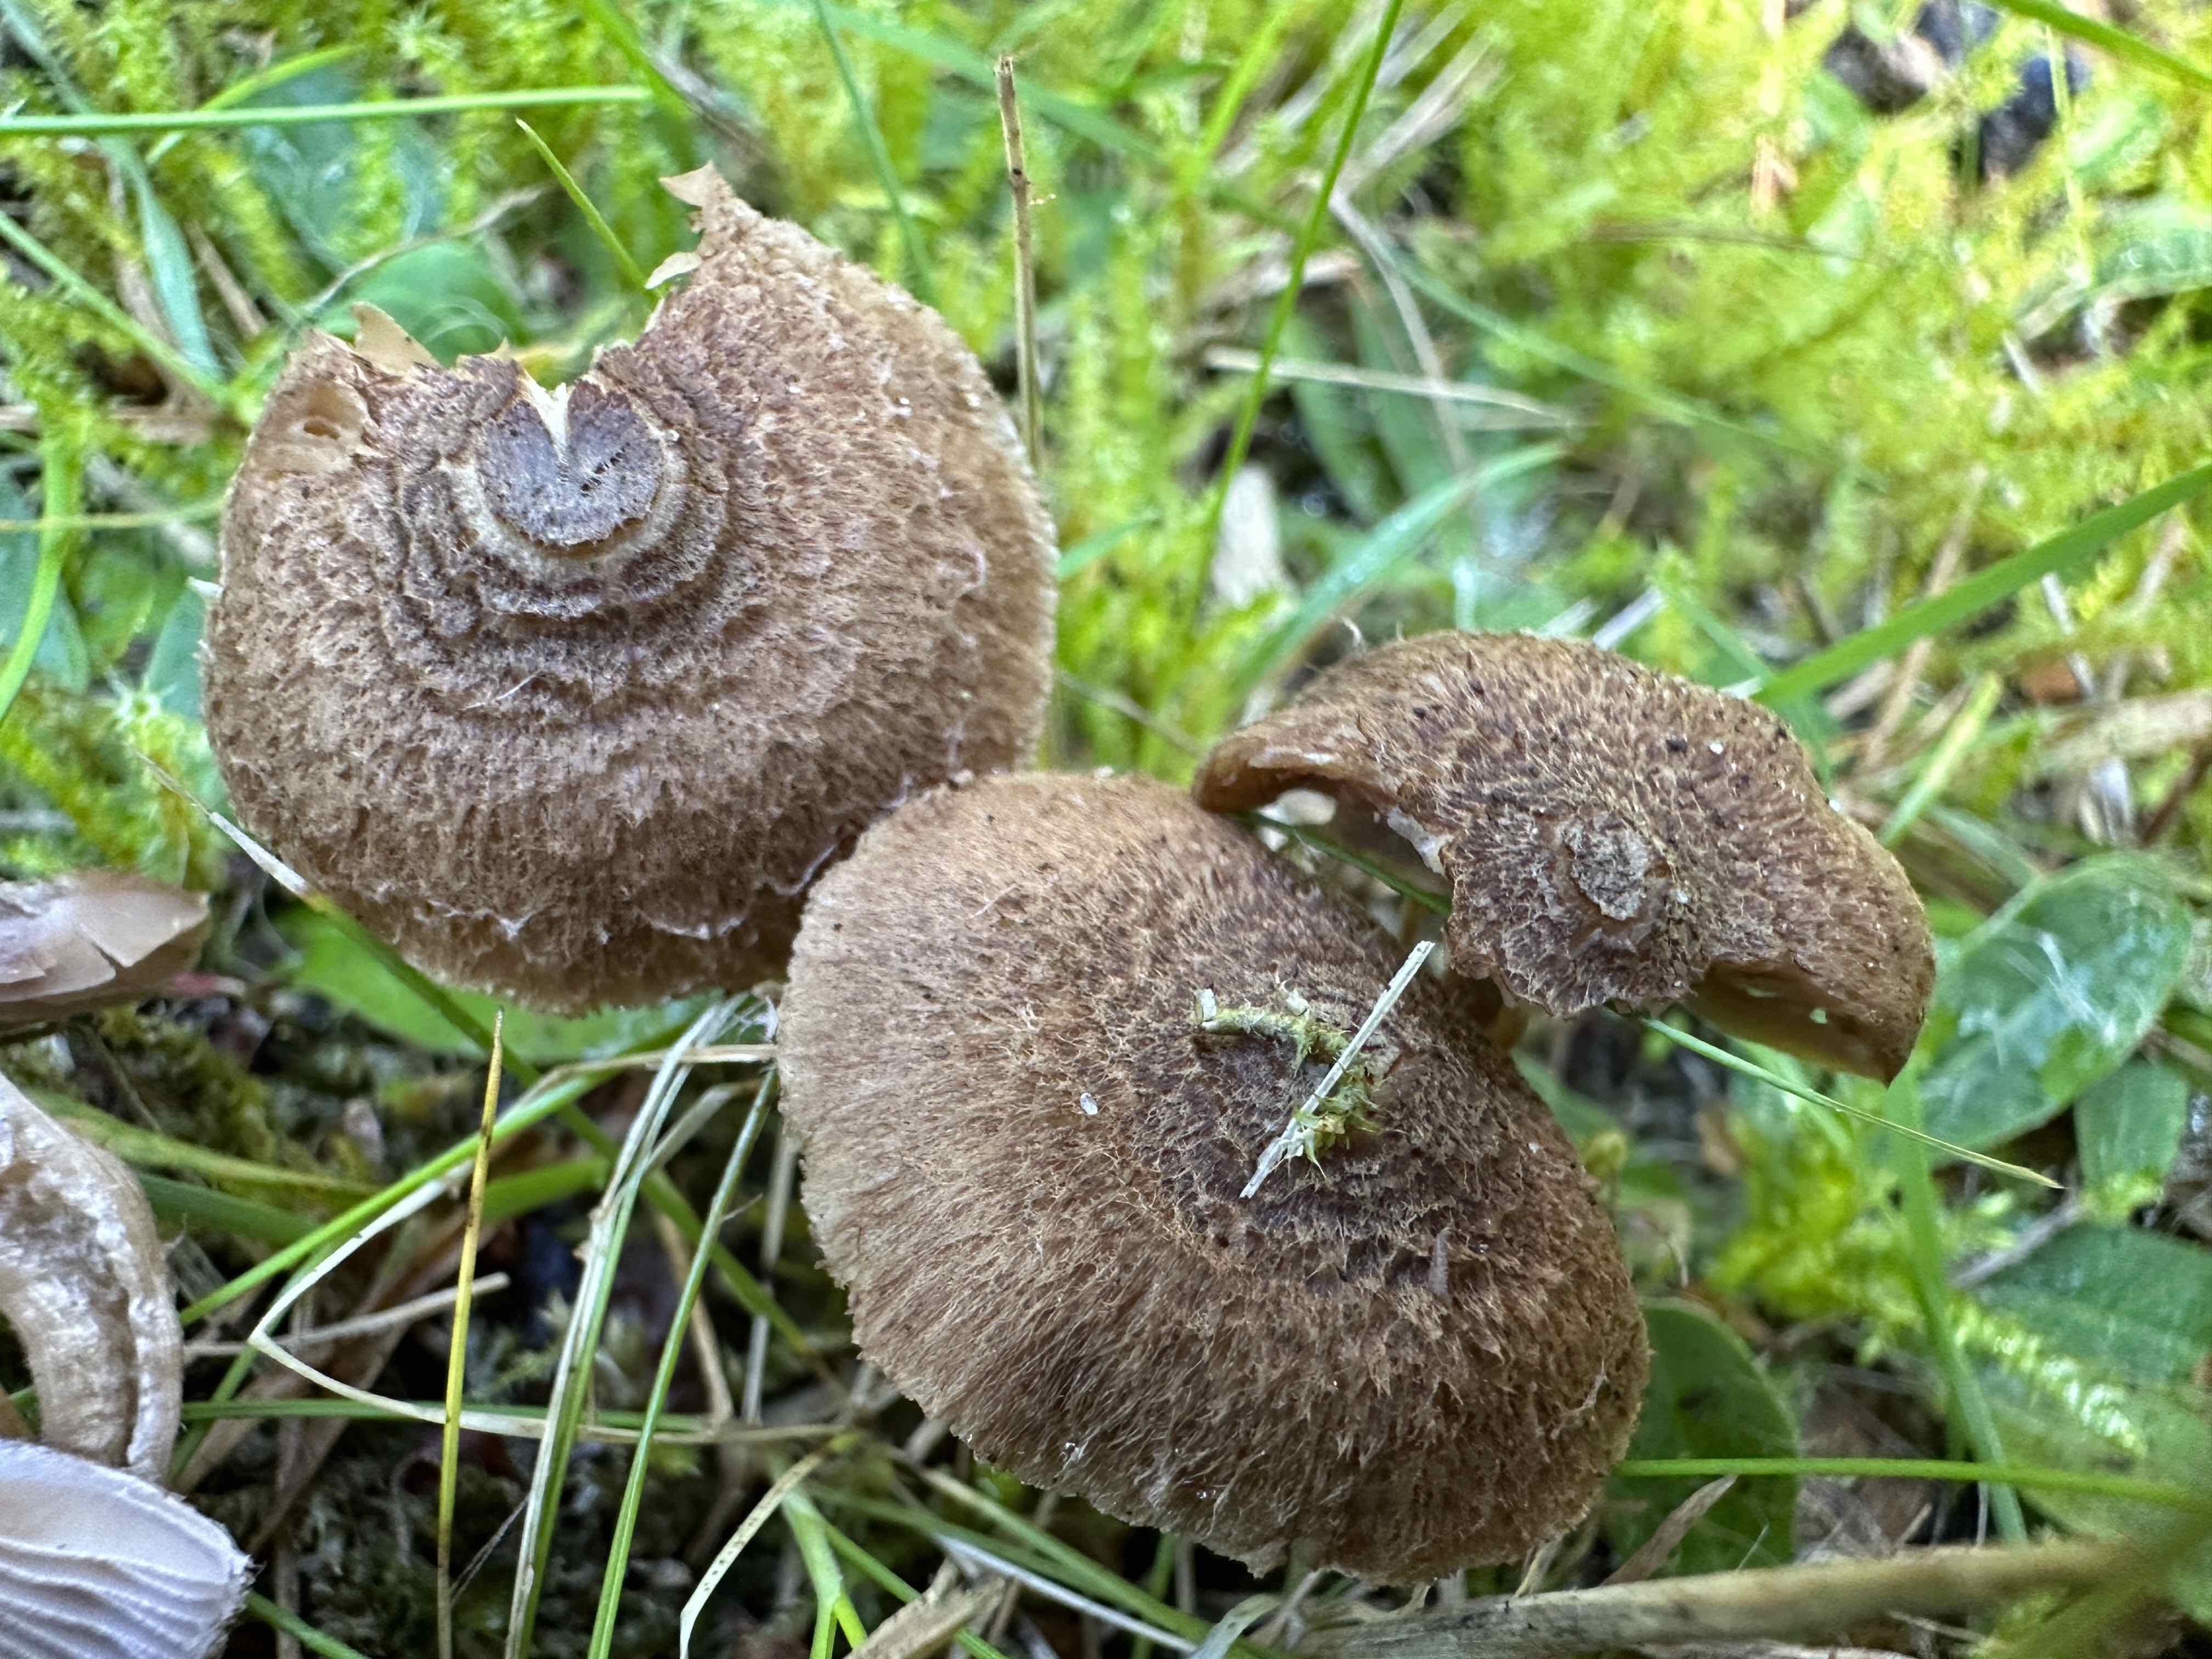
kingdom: Fungi
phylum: Basidiomycota
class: Agaricomycetes
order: Agaricales
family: Inocybaceae
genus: Inocybe
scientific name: Inocybe cincinnata
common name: lillabladet trævlhat
